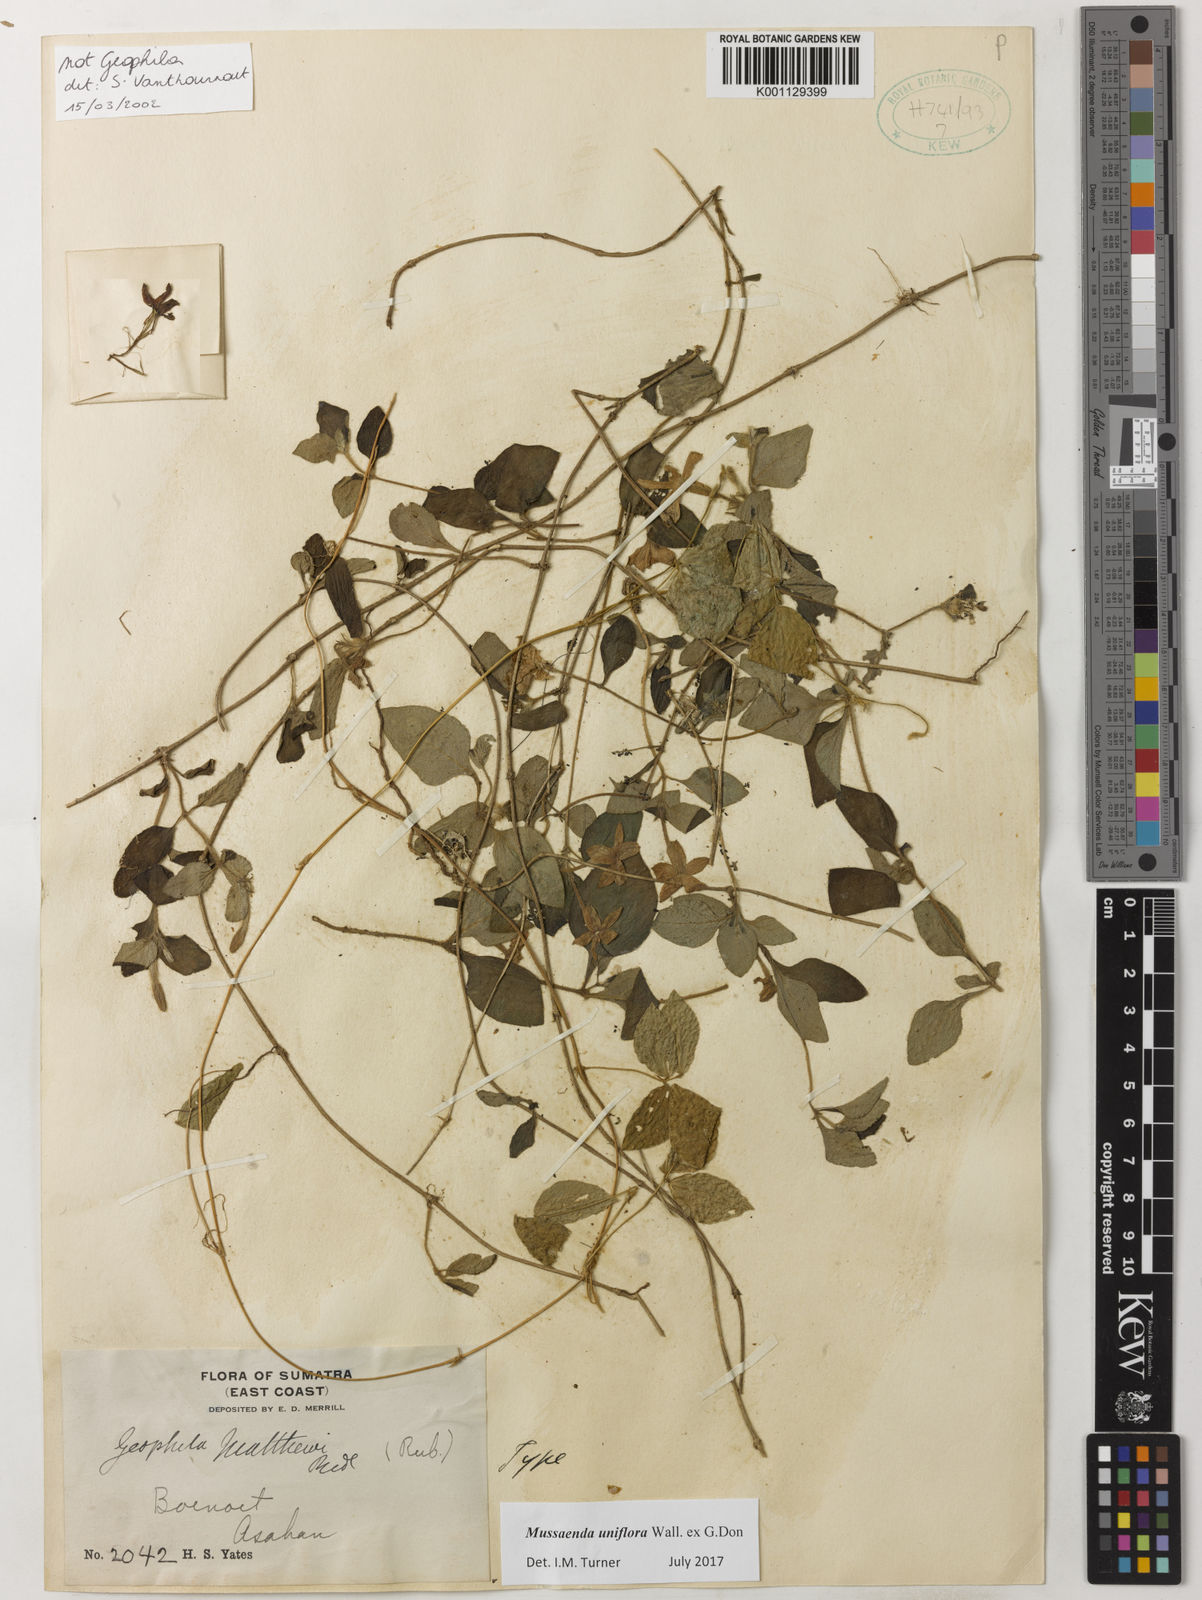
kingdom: Plantae
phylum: Tracheophyta
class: Magnoliopsida
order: Gentianales
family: Rubiaceae
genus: Mussaenda
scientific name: Mussaenda uniflora
